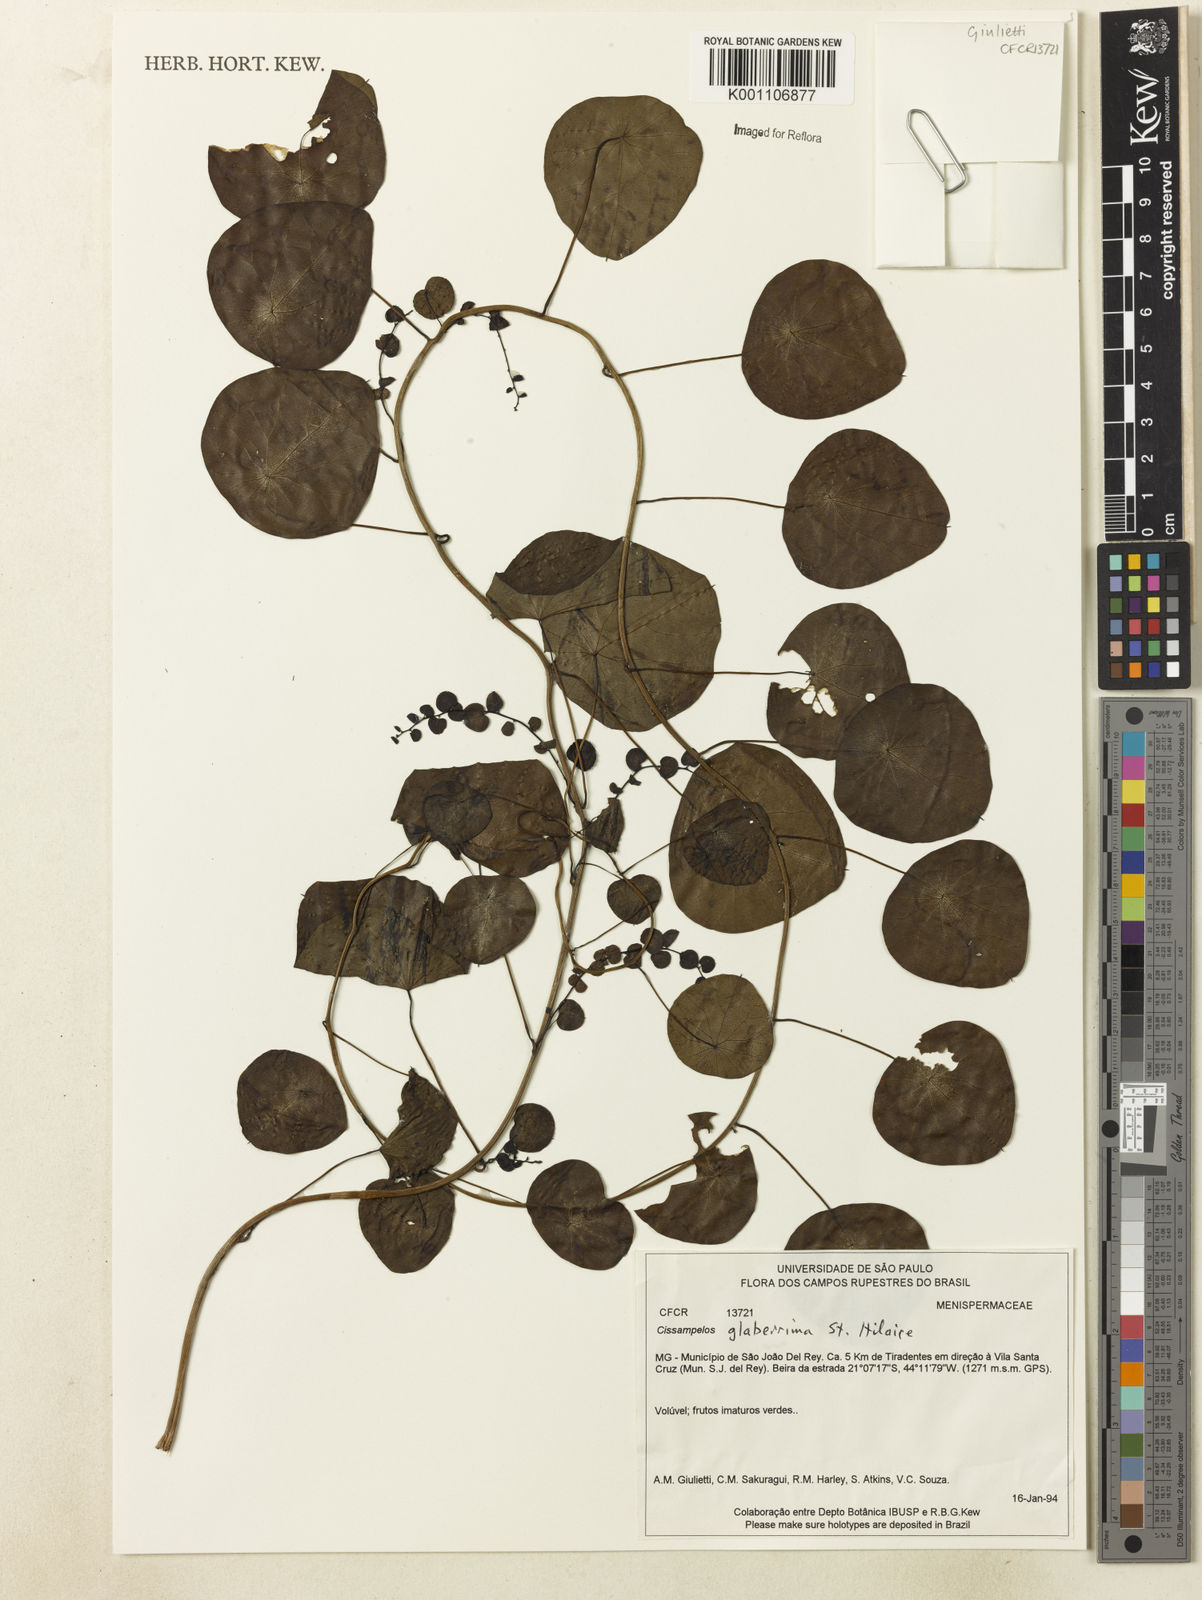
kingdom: Plantae
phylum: Tracheophyta
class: Magnoliopsida
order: Ranunculales
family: Menispermaceae
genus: Cissampelos
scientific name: Cissampelos glaberrima
